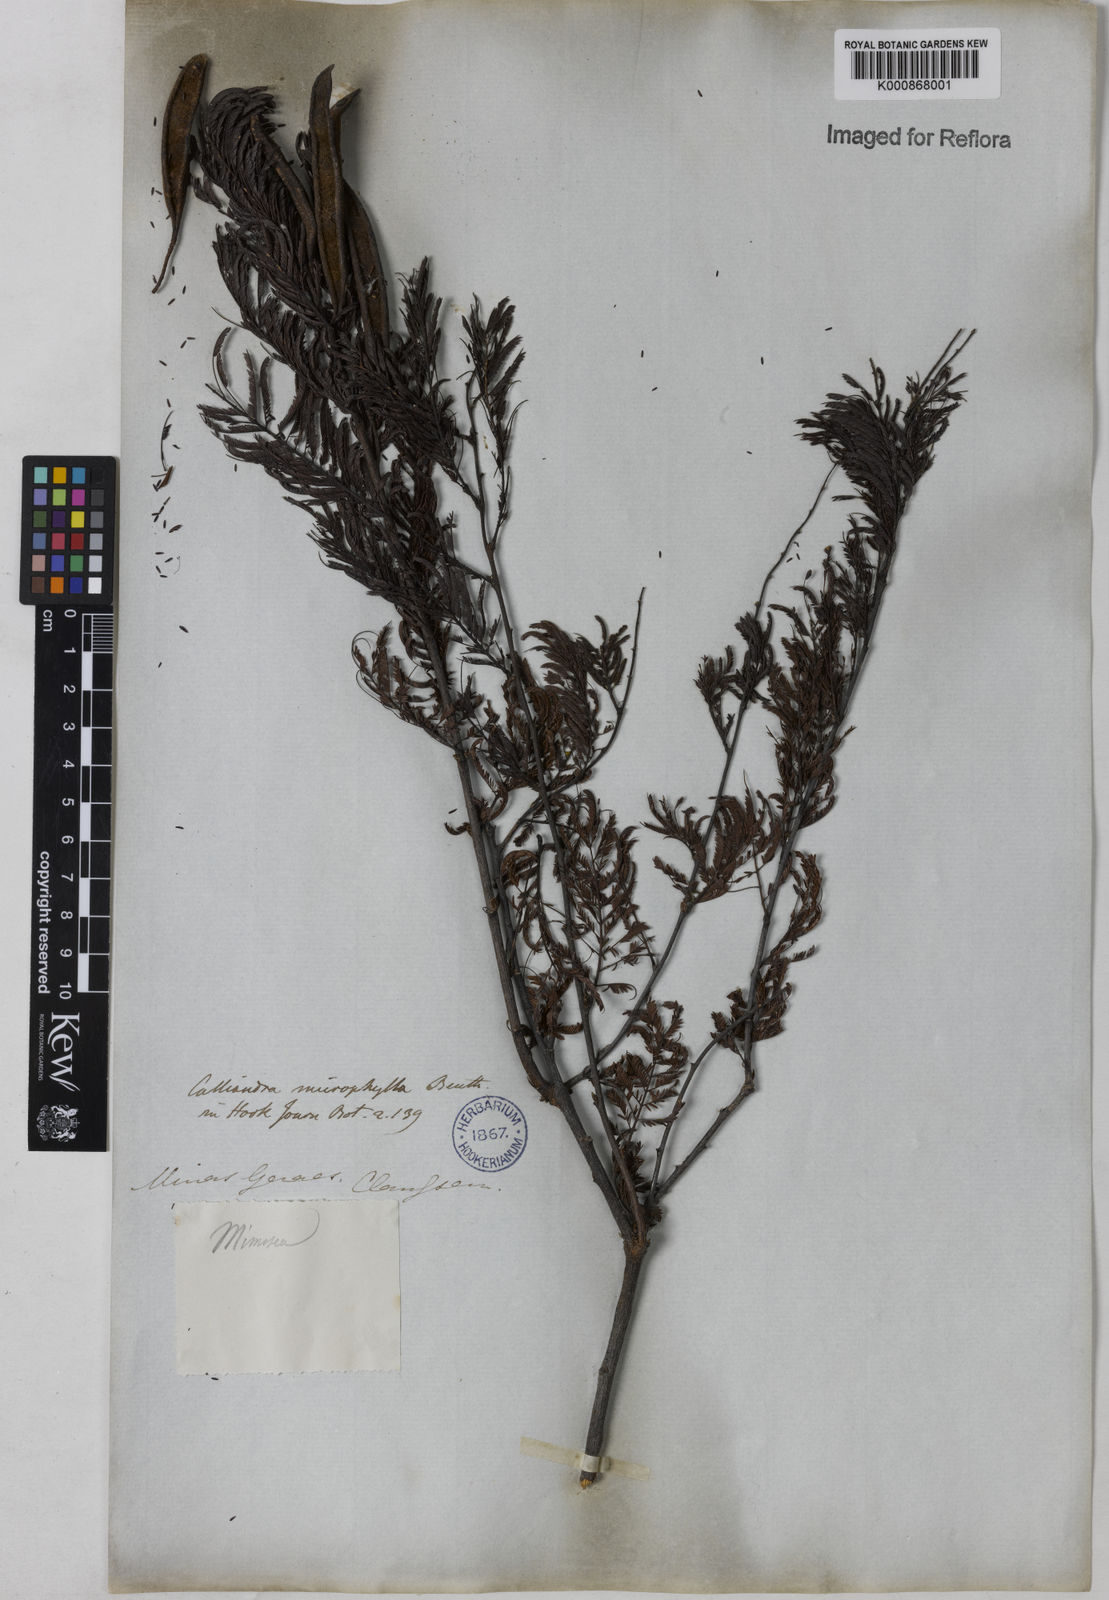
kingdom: Plantae
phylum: Tracheophyta
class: Magnoliopsida
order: Fabales
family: Fabaceae
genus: Calliandra
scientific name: Calliandra parvifolia
